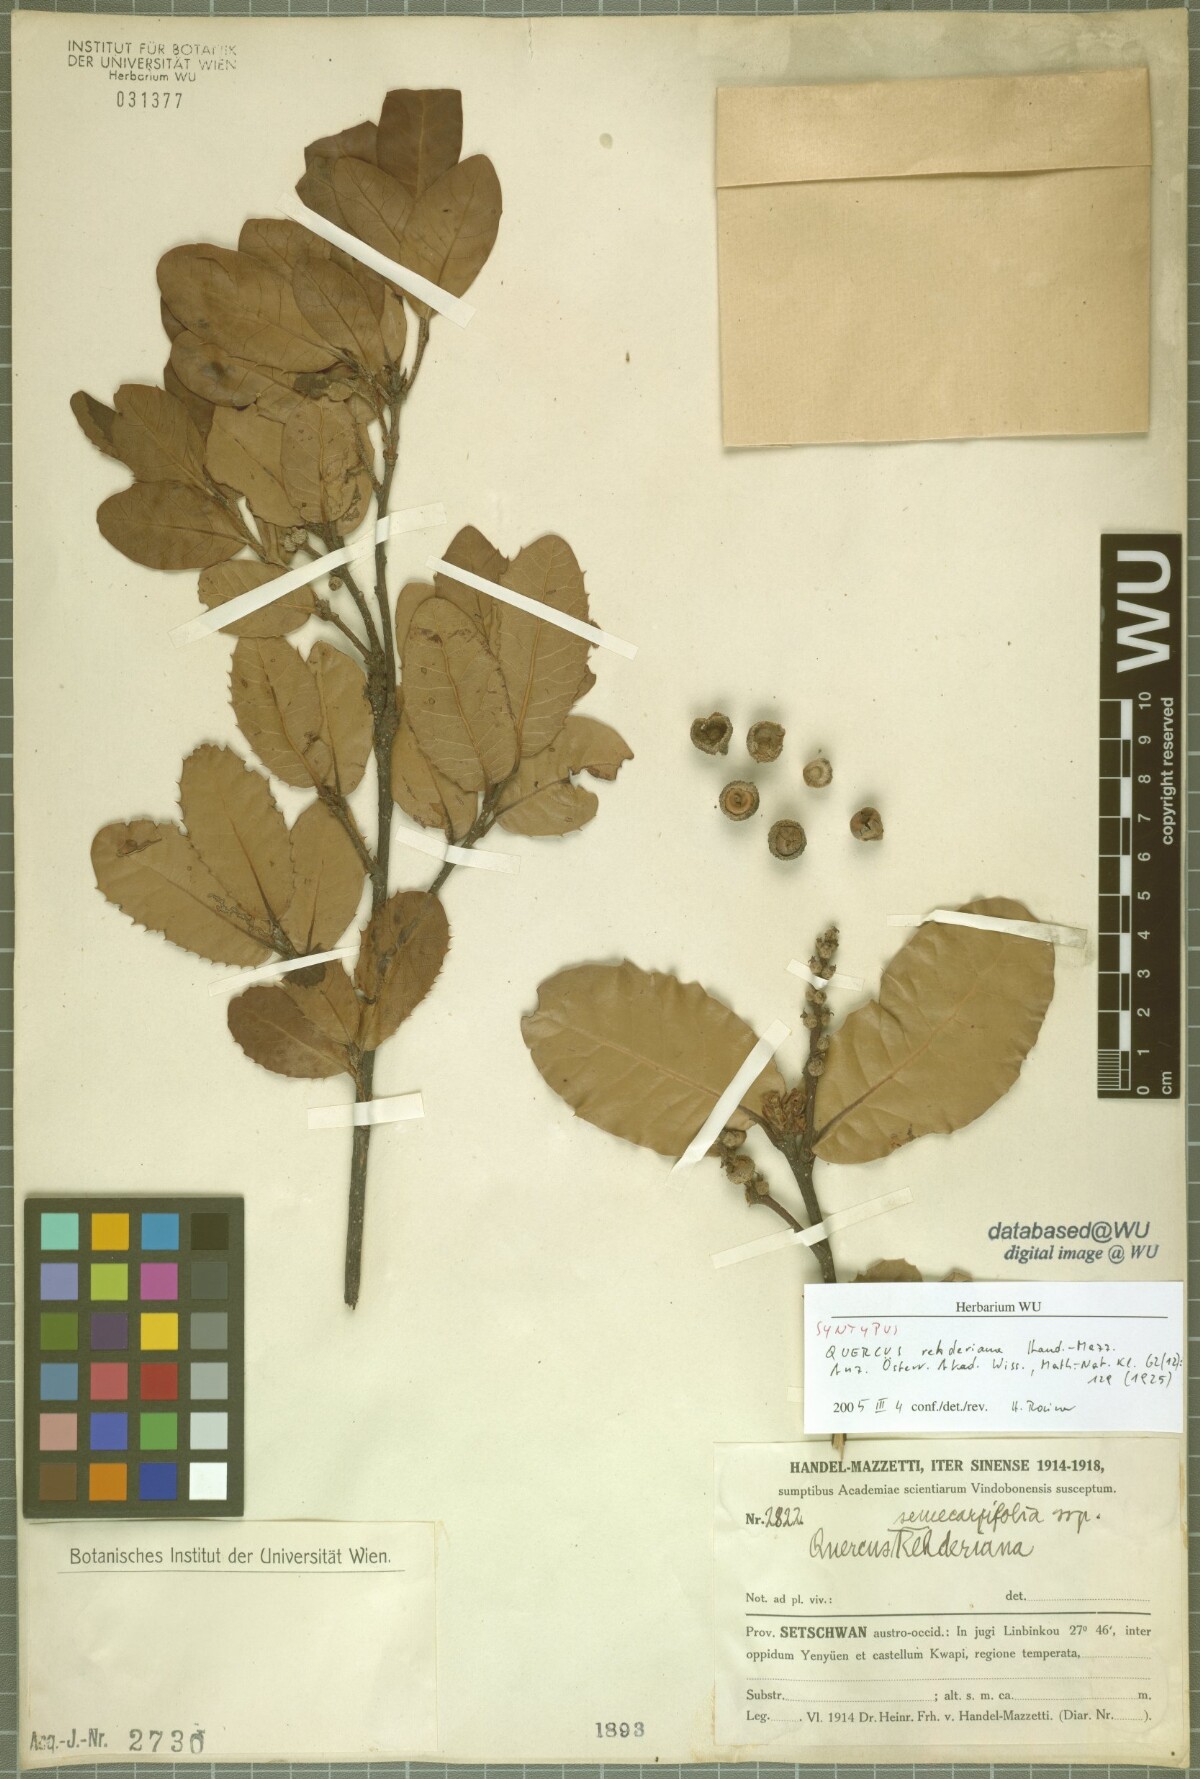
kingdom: Plantae
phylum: Tracheophyta
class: Magnoliopsida
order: Fagales
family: Fagaceae
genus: Quercus
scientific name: Quercus rehderiana
